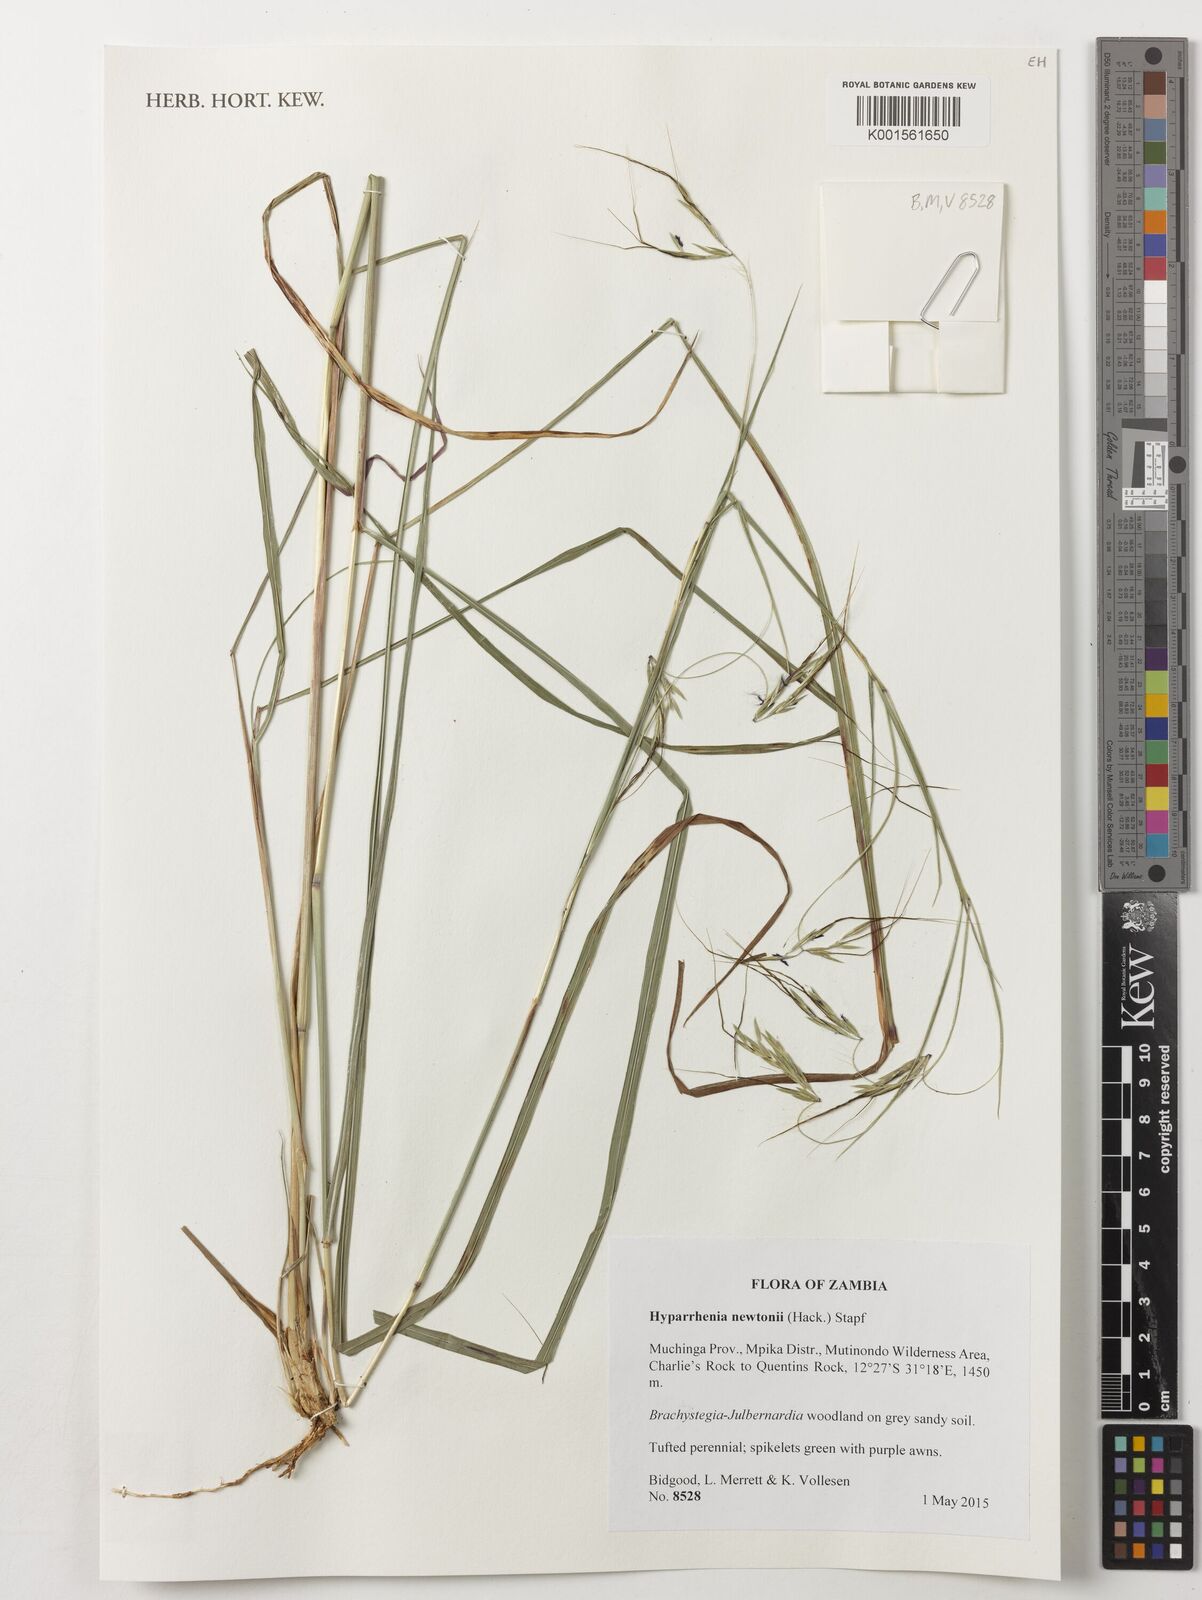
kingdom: Plantae
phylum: Tracheophyta
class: Liliopsida
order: Poales
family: Poaceae
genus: Hyparrhenia
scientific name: Hyparrhenia nyassae
